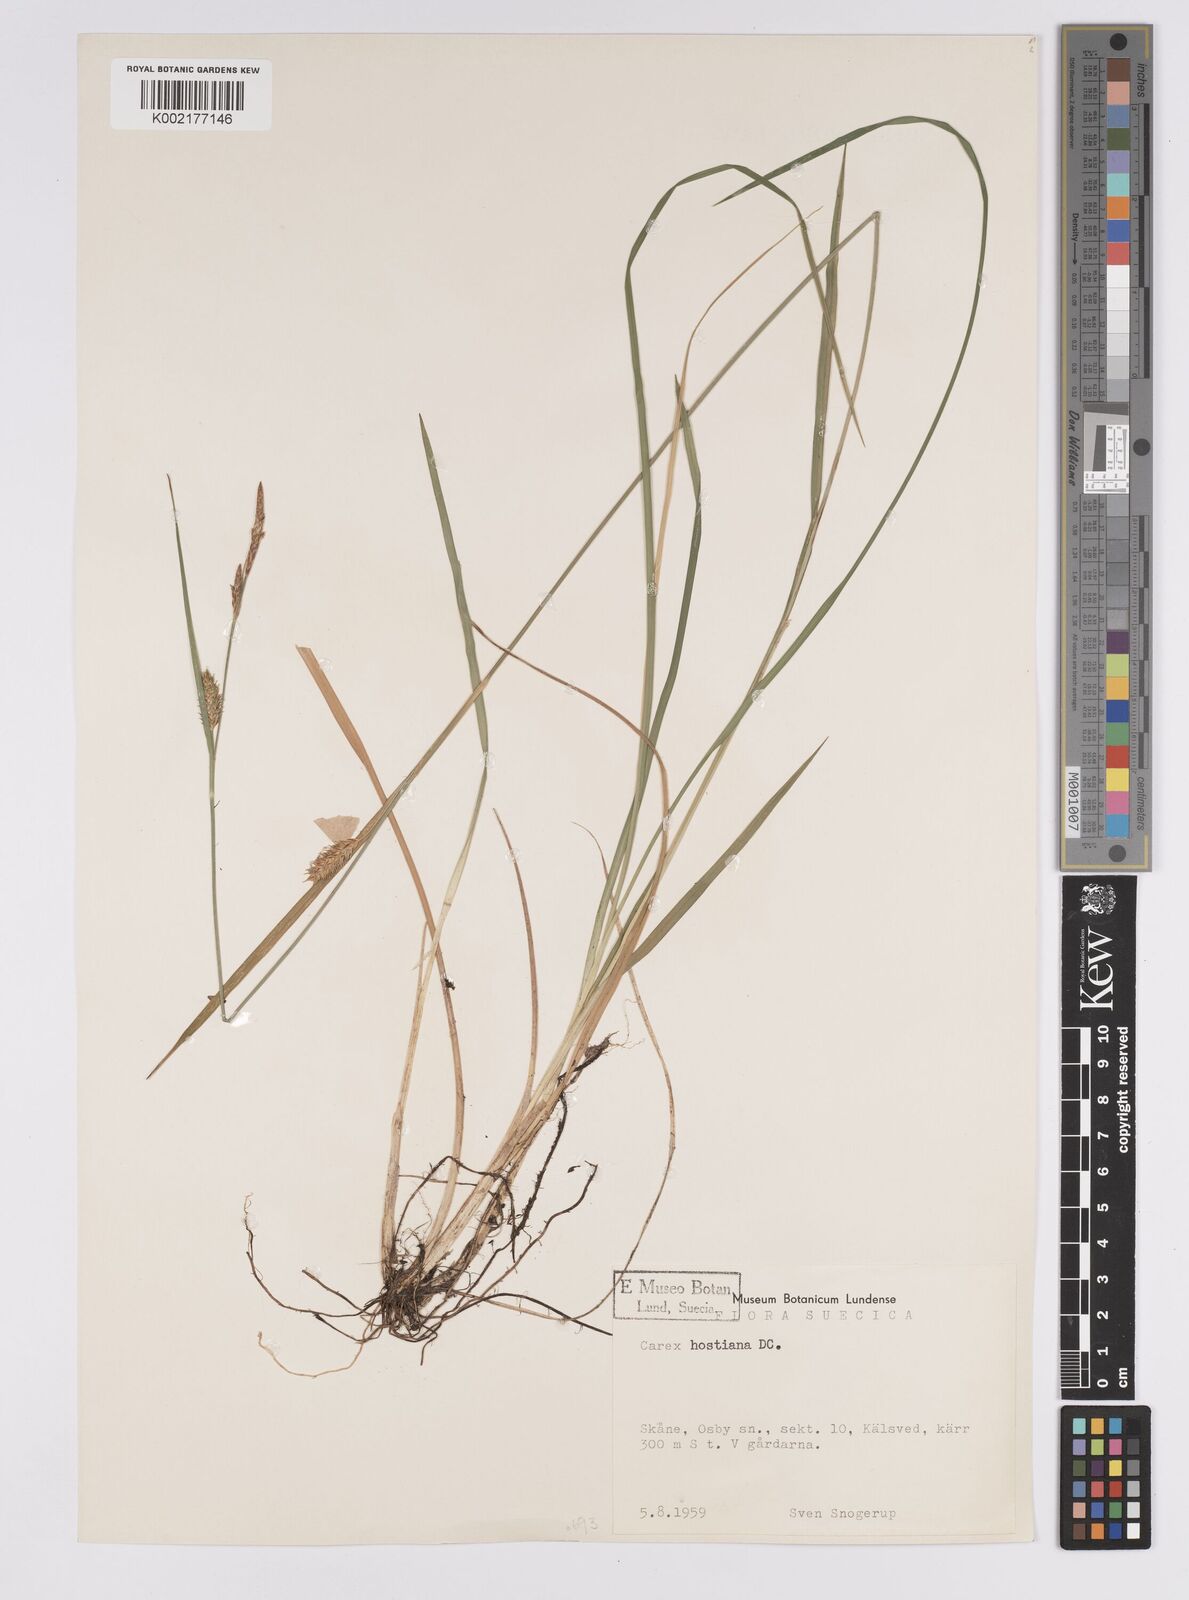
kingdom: Plantae
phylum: Tracheophyta
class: Liliopsida
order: Poales
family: Cyperaceae
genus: Carex
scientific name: Carex hostiana
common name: Tawny sedge
